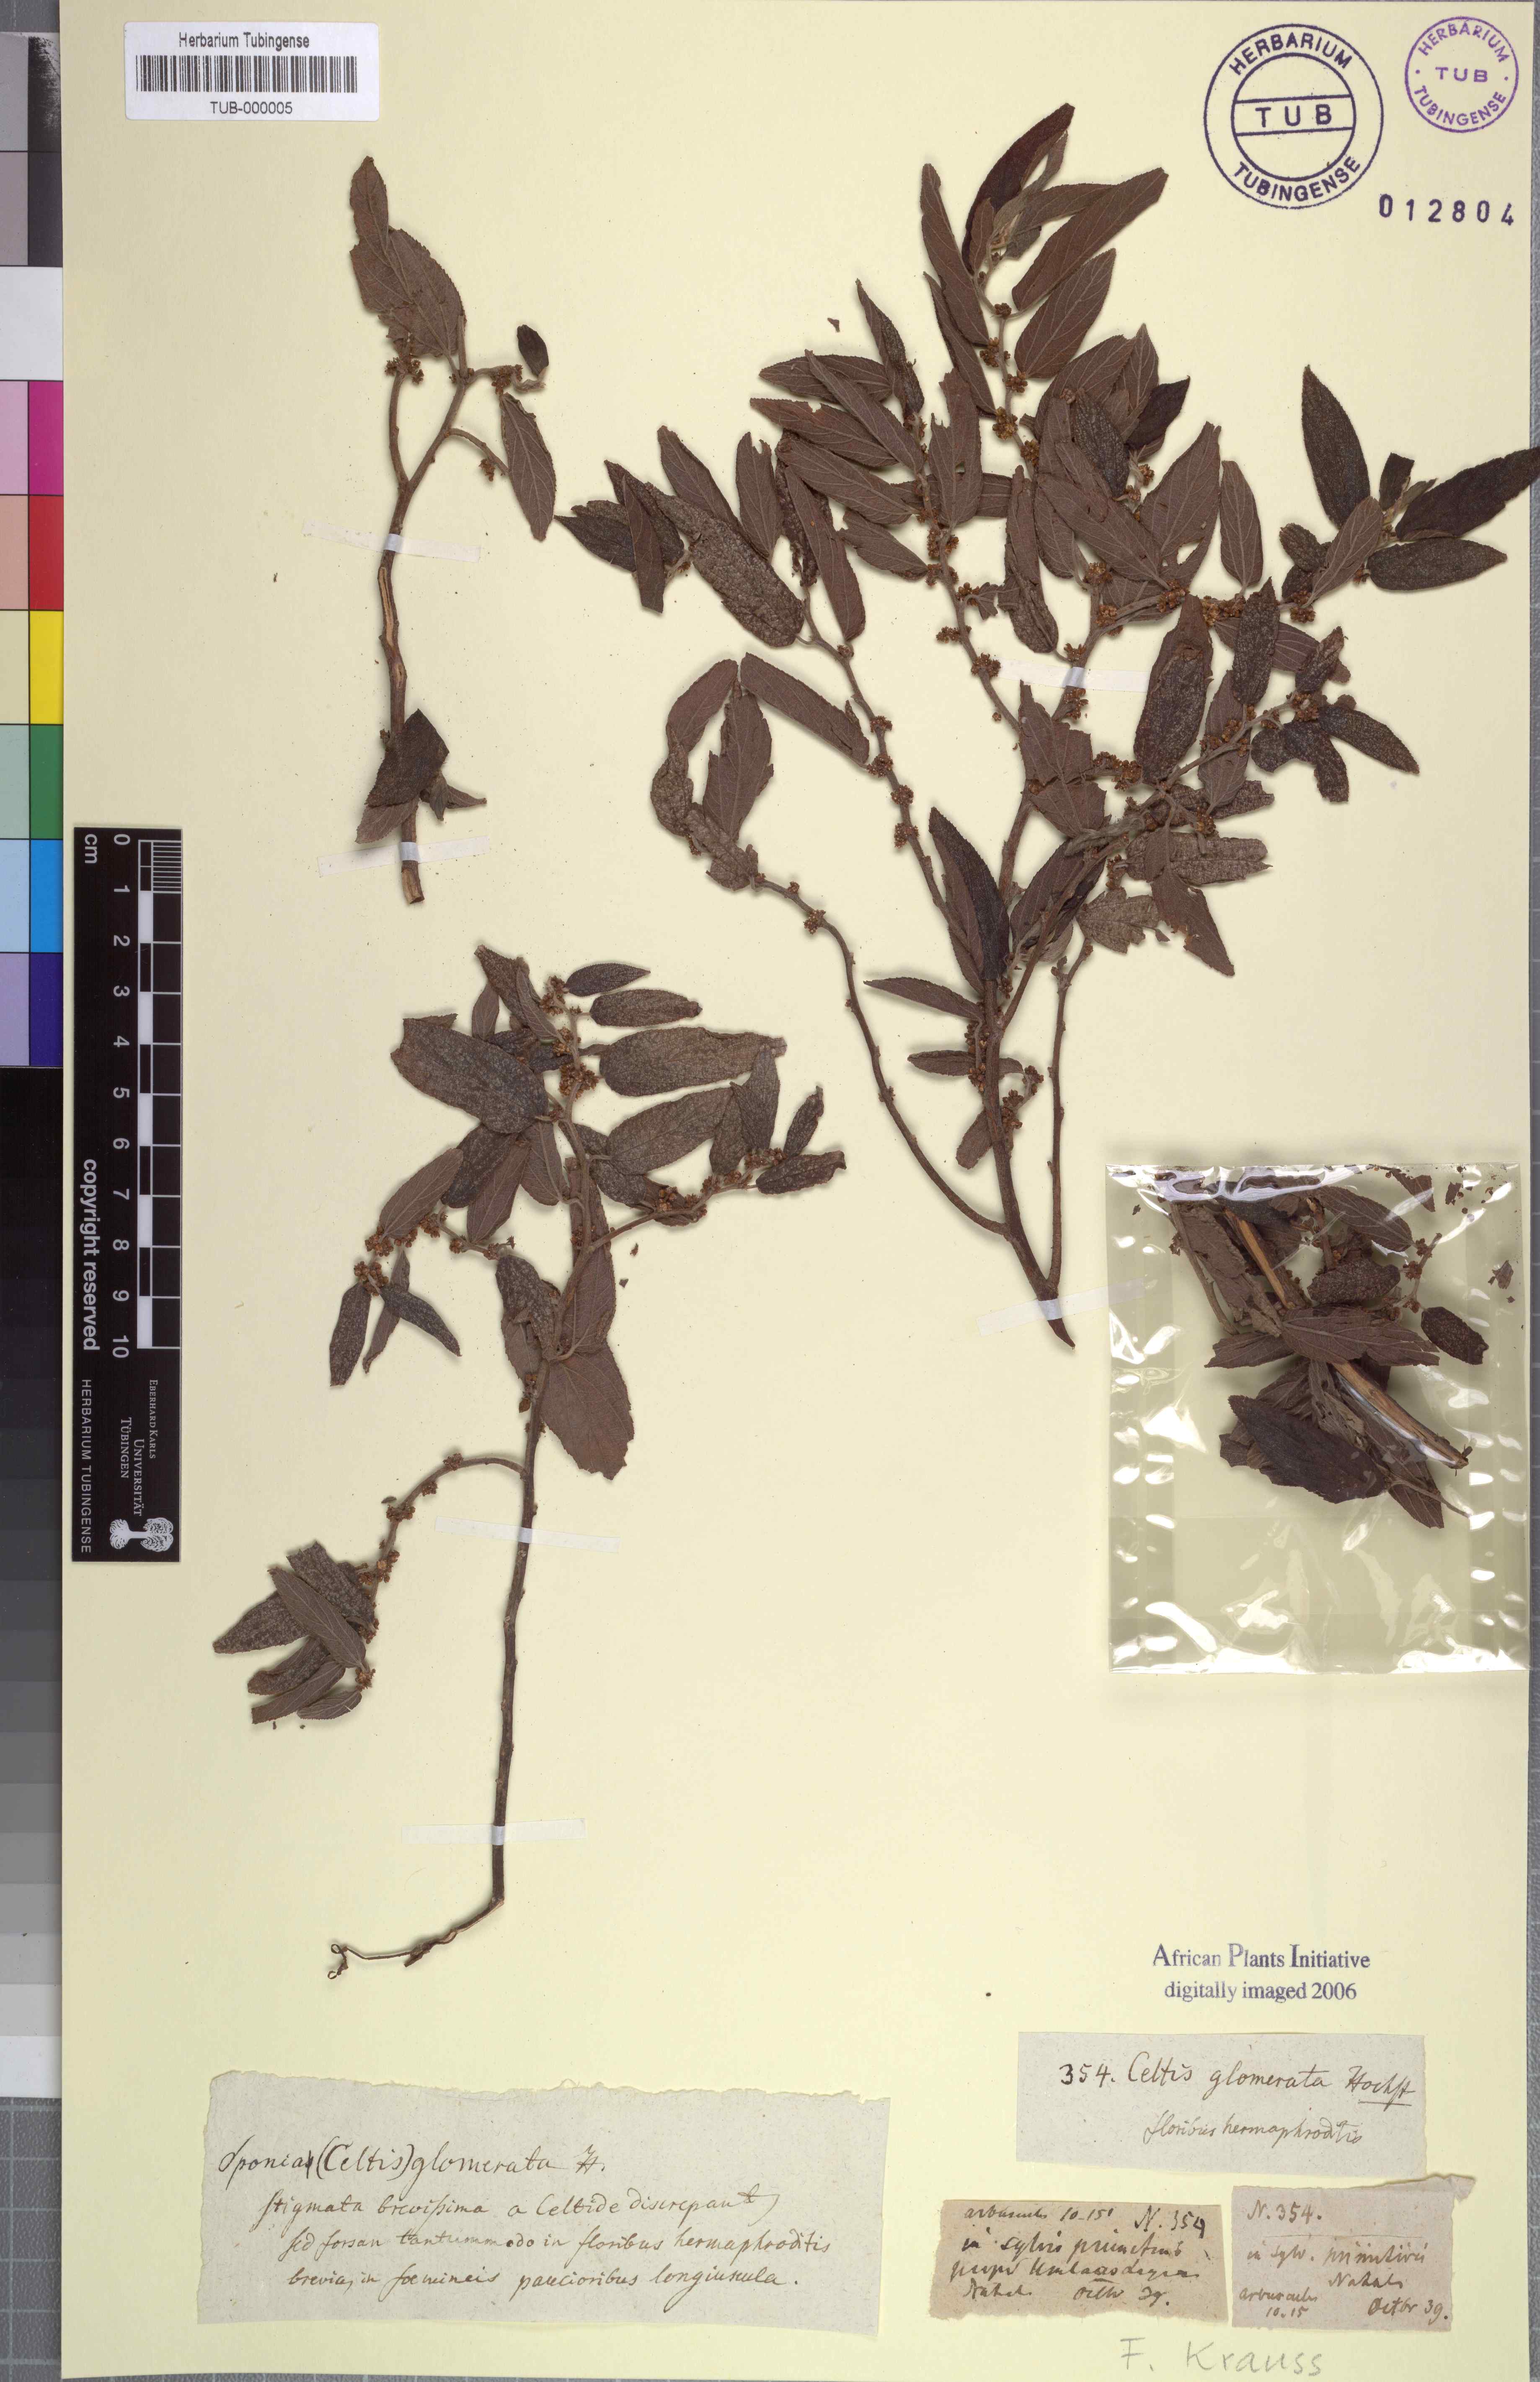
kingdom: Plantae
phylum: Tracheophyta
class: Magnoliopsida
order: Rosales
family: Cannabaceae
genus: Trema
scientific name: Trema orientale
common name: Indian charcoal tree
